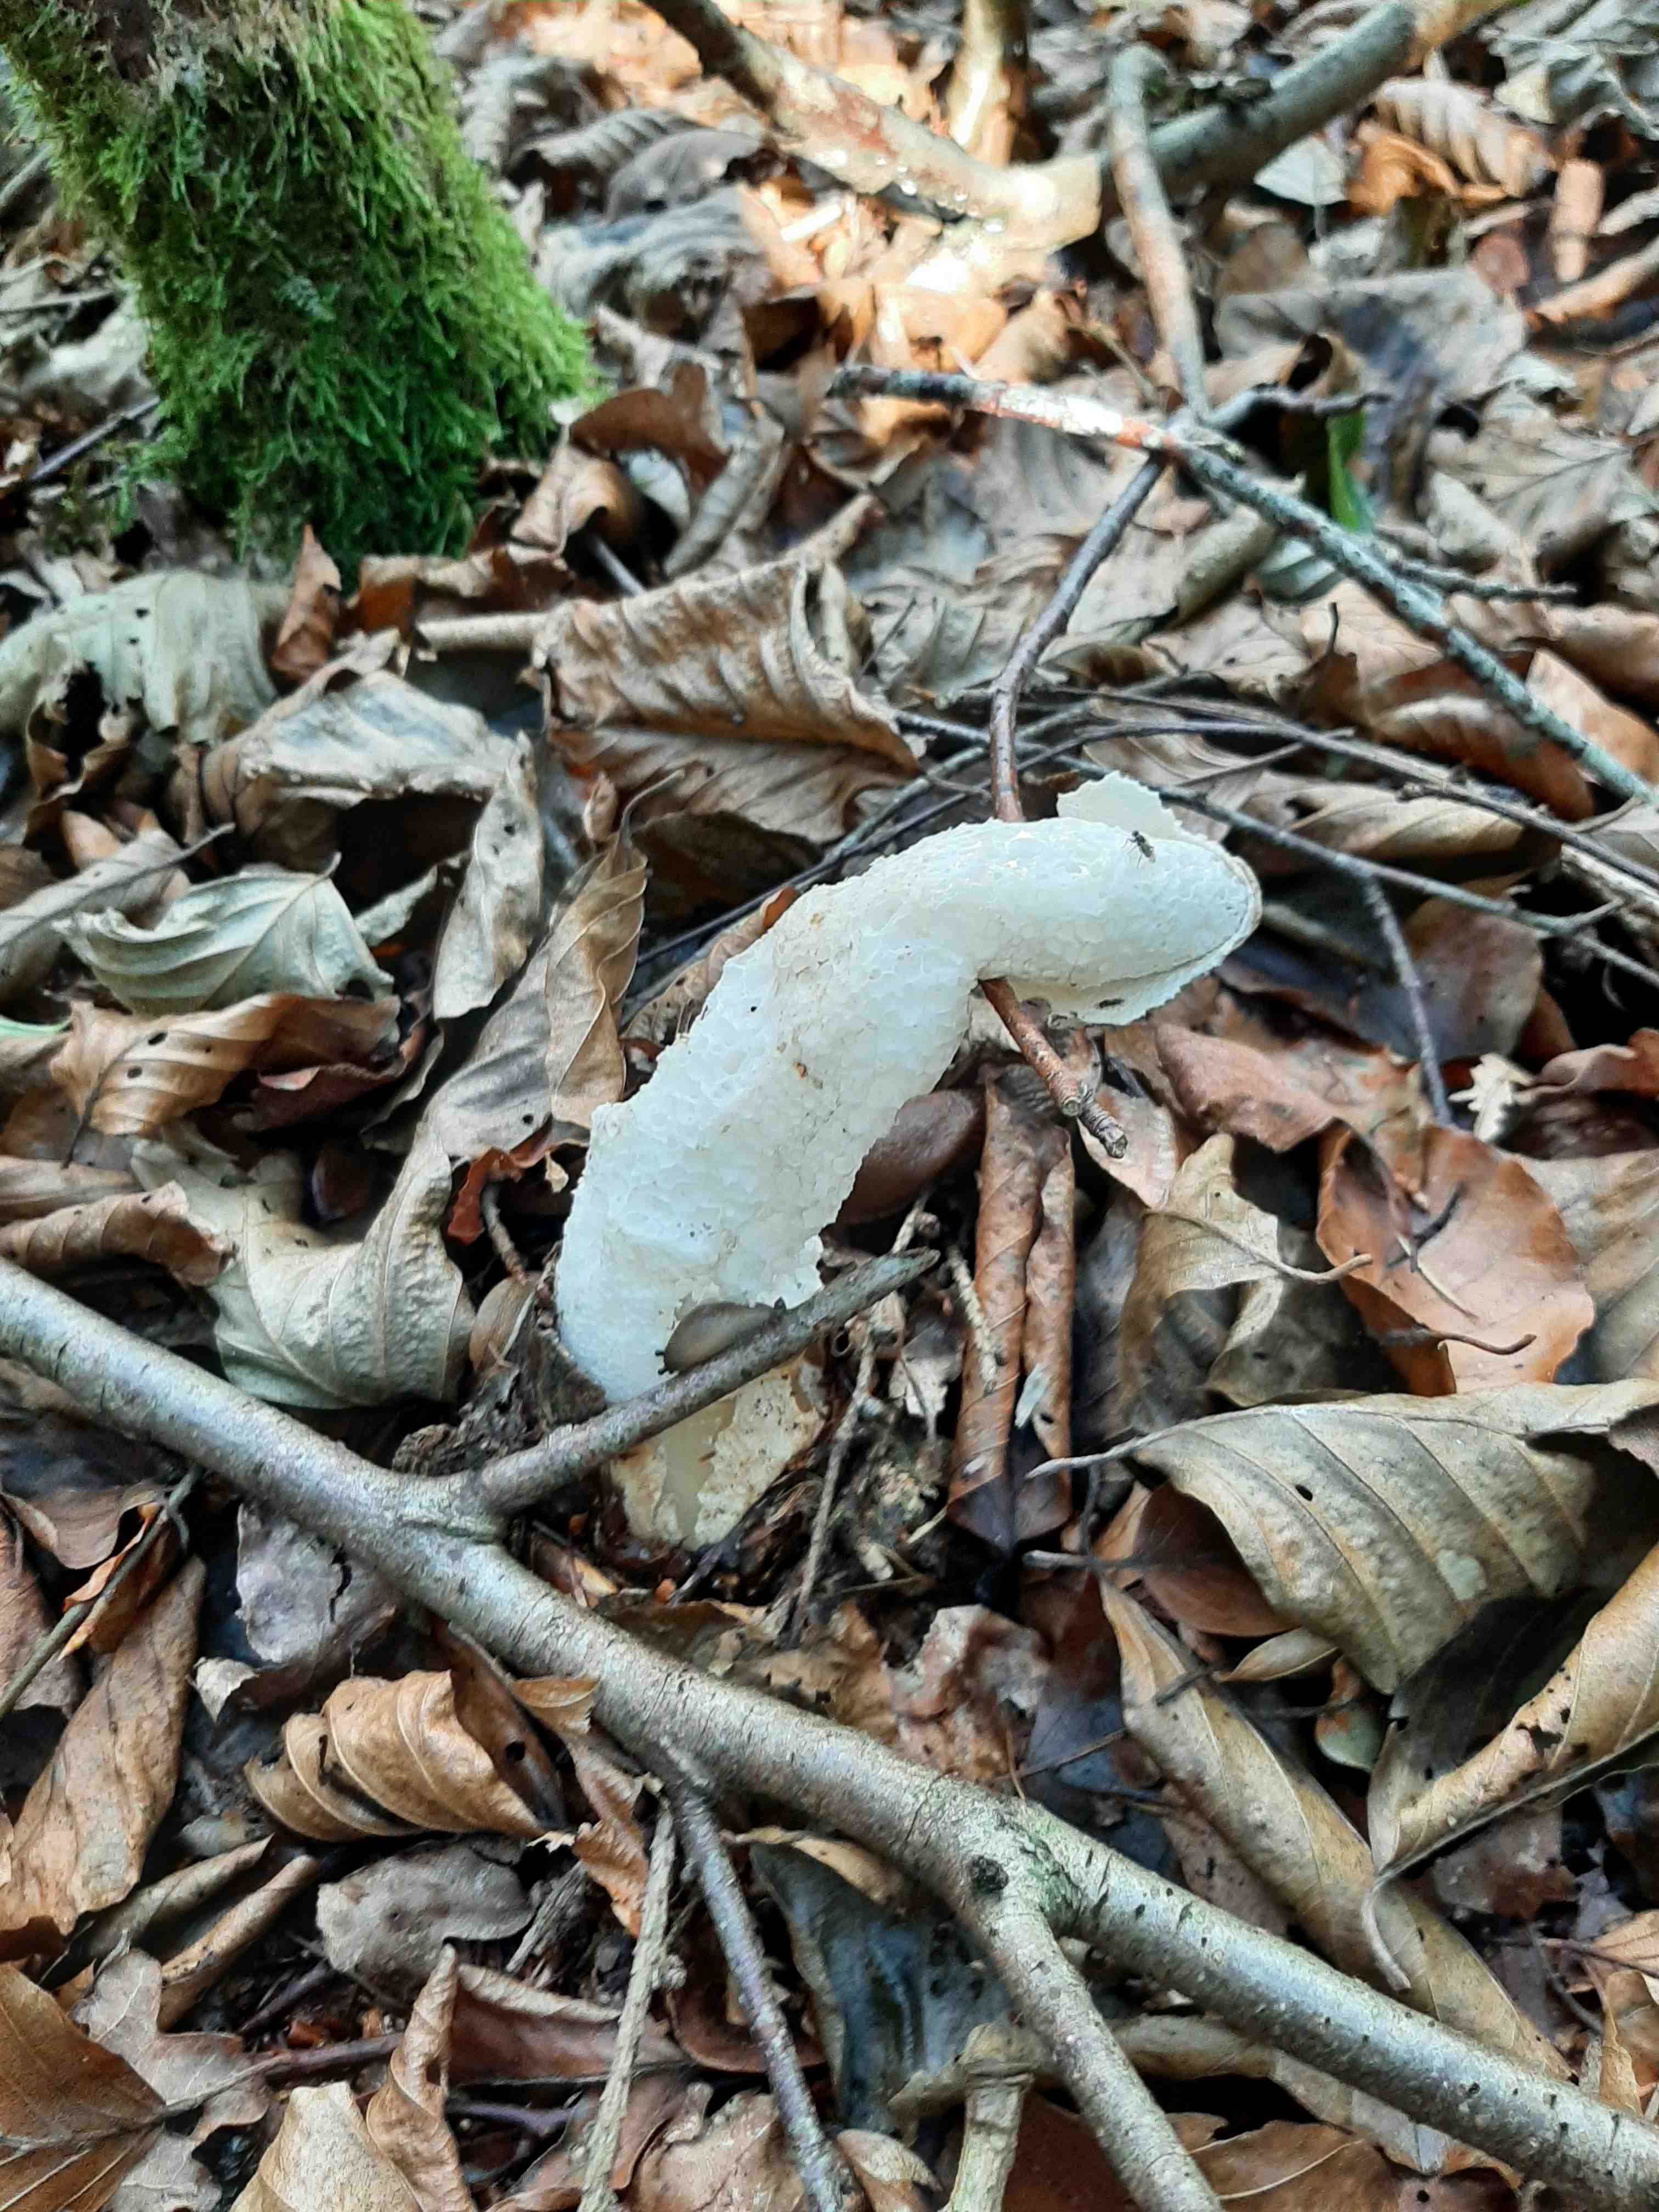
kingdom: Fungi
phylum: Basidiomycota
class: Agaricomycetes
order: Phallales
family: Phallaceae
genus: Phallus
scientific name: Phallus impudicus
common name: almindelig stinksvamp
